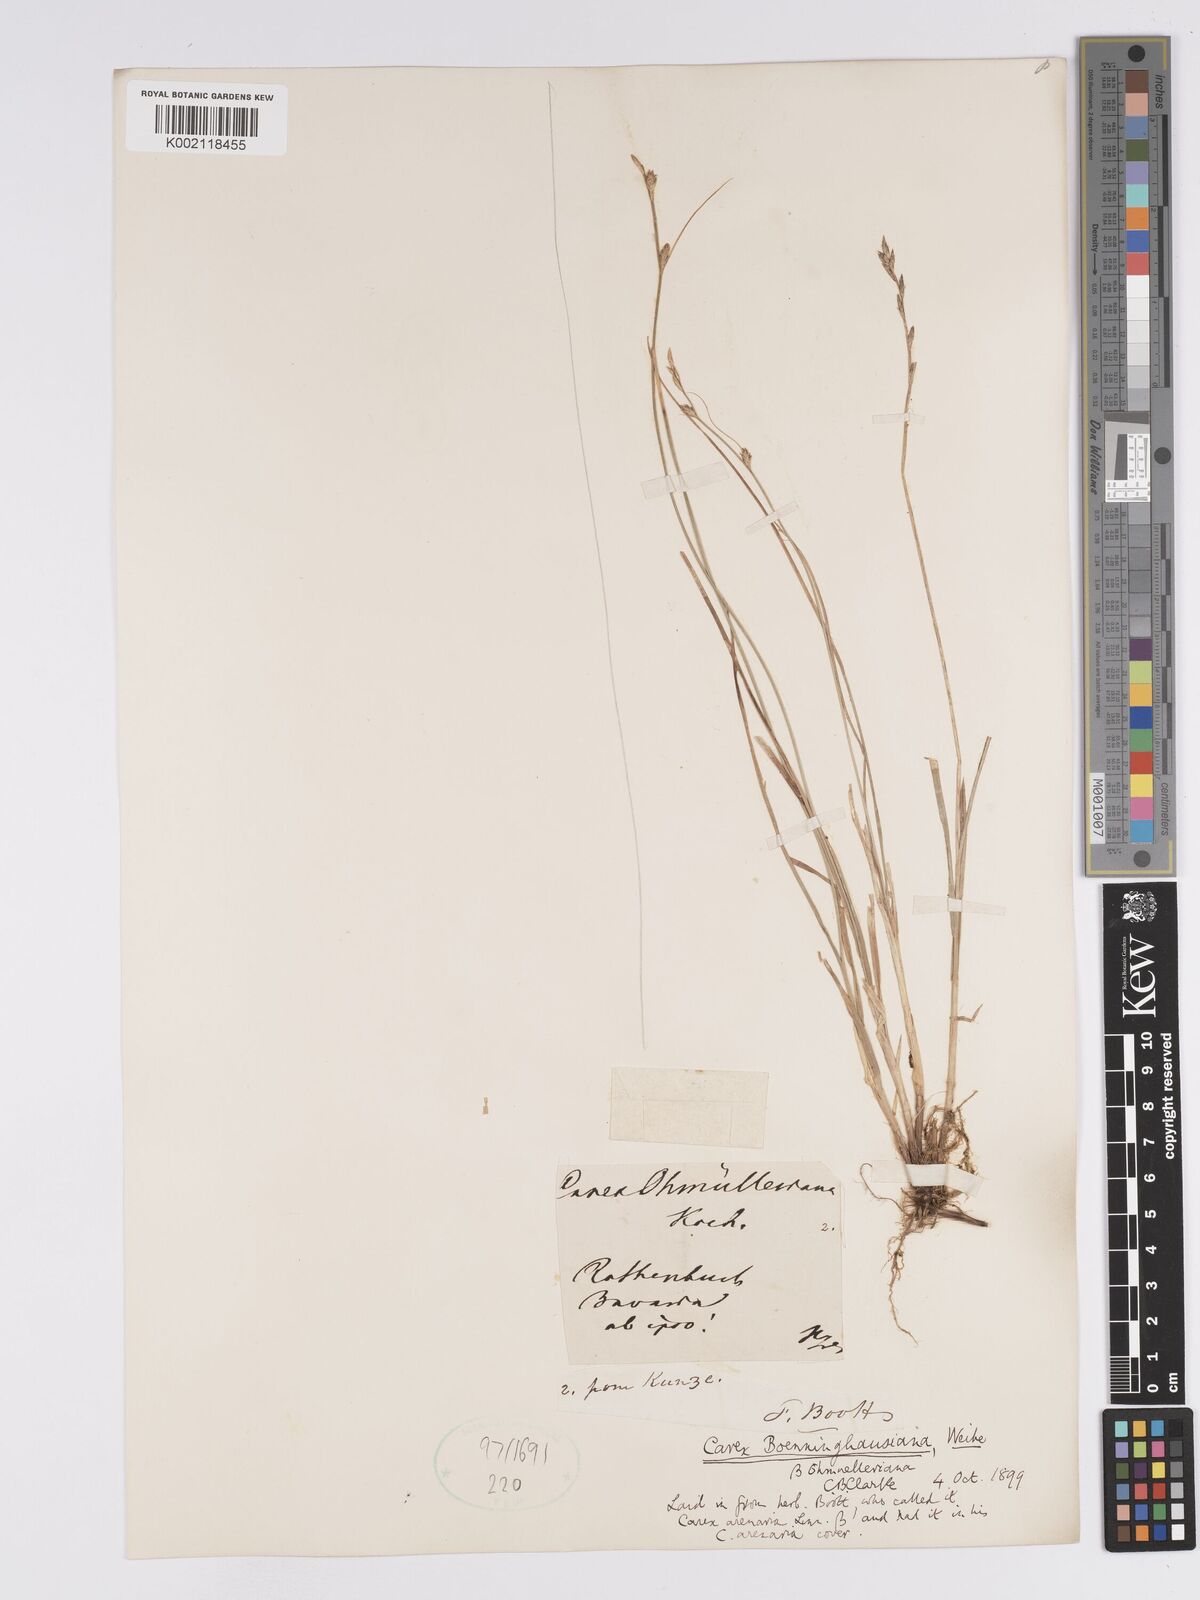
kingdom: Plantae
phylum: Tracheophyta
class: Liliopsida
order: Poales
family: Cyperaceae
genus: Carex
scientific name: Carex boenninghausiana
